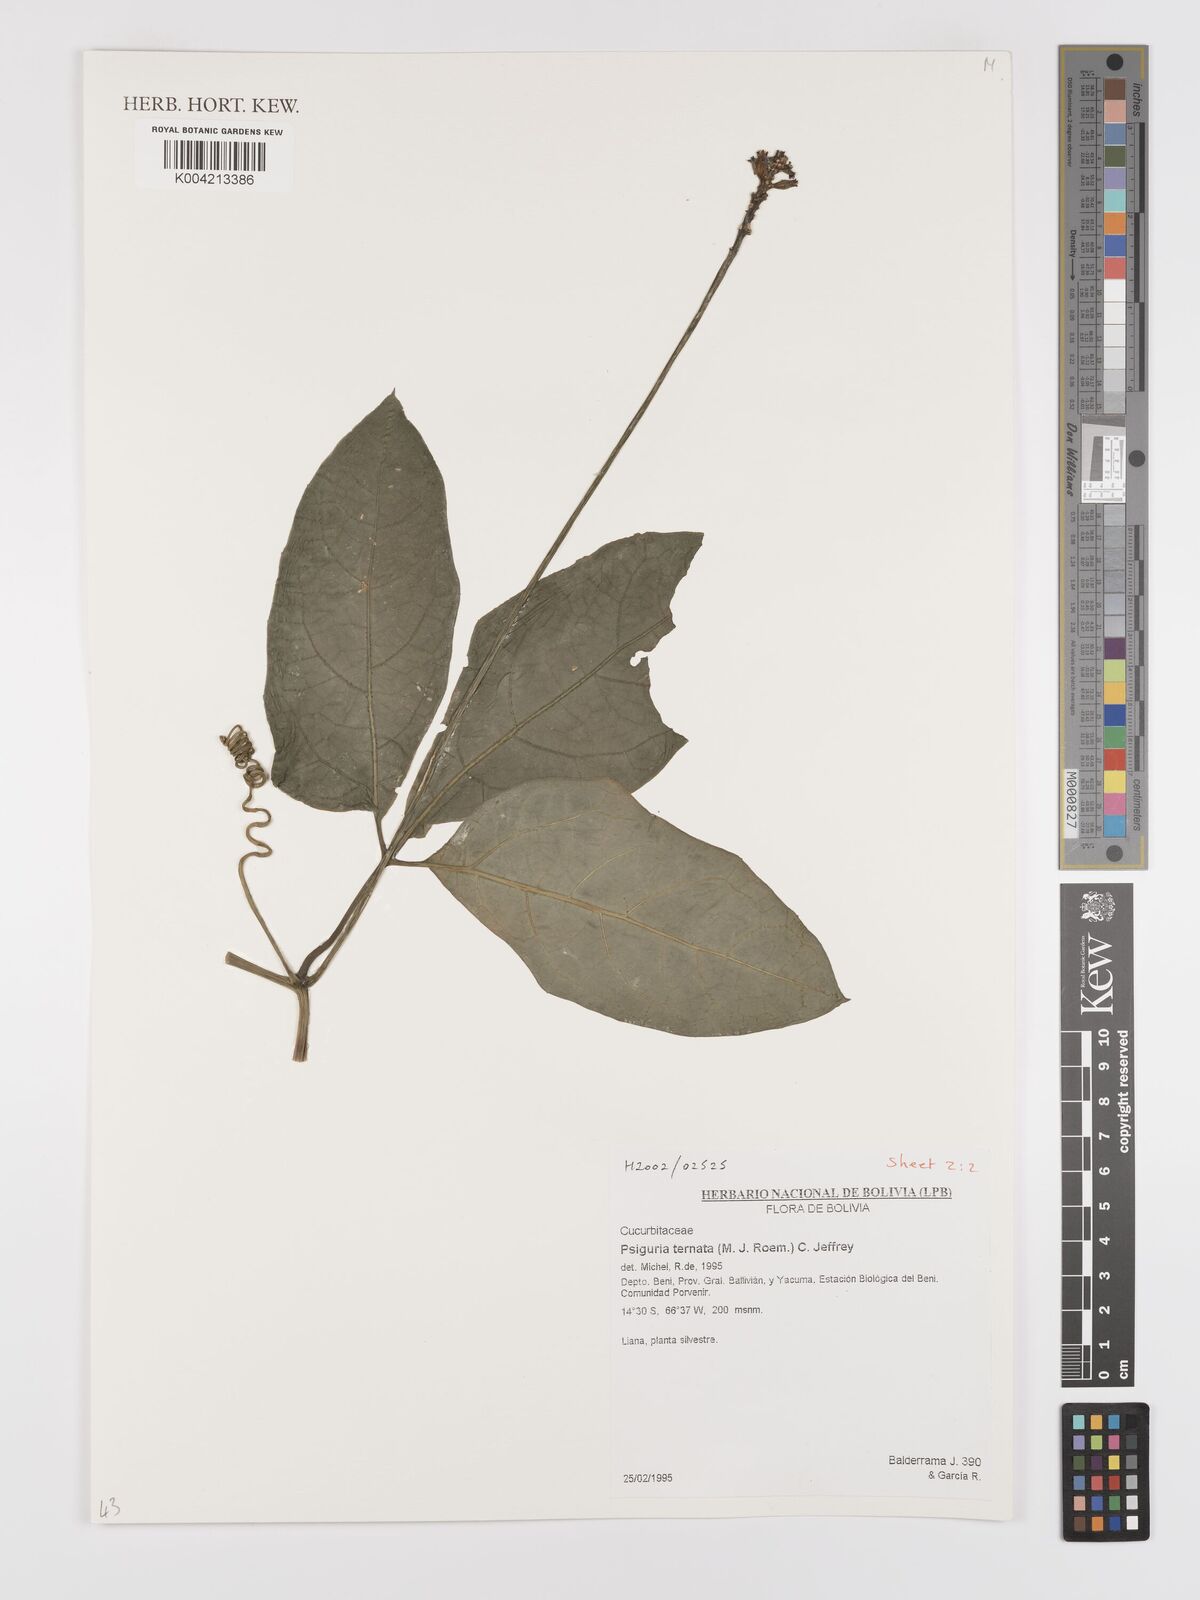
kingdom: Plantae
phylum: Tracheophyta
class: Magnoliopsida
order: Cucurbitales
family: Cucurbitaceae
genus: Psiguria
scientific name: Psiguria ternata
